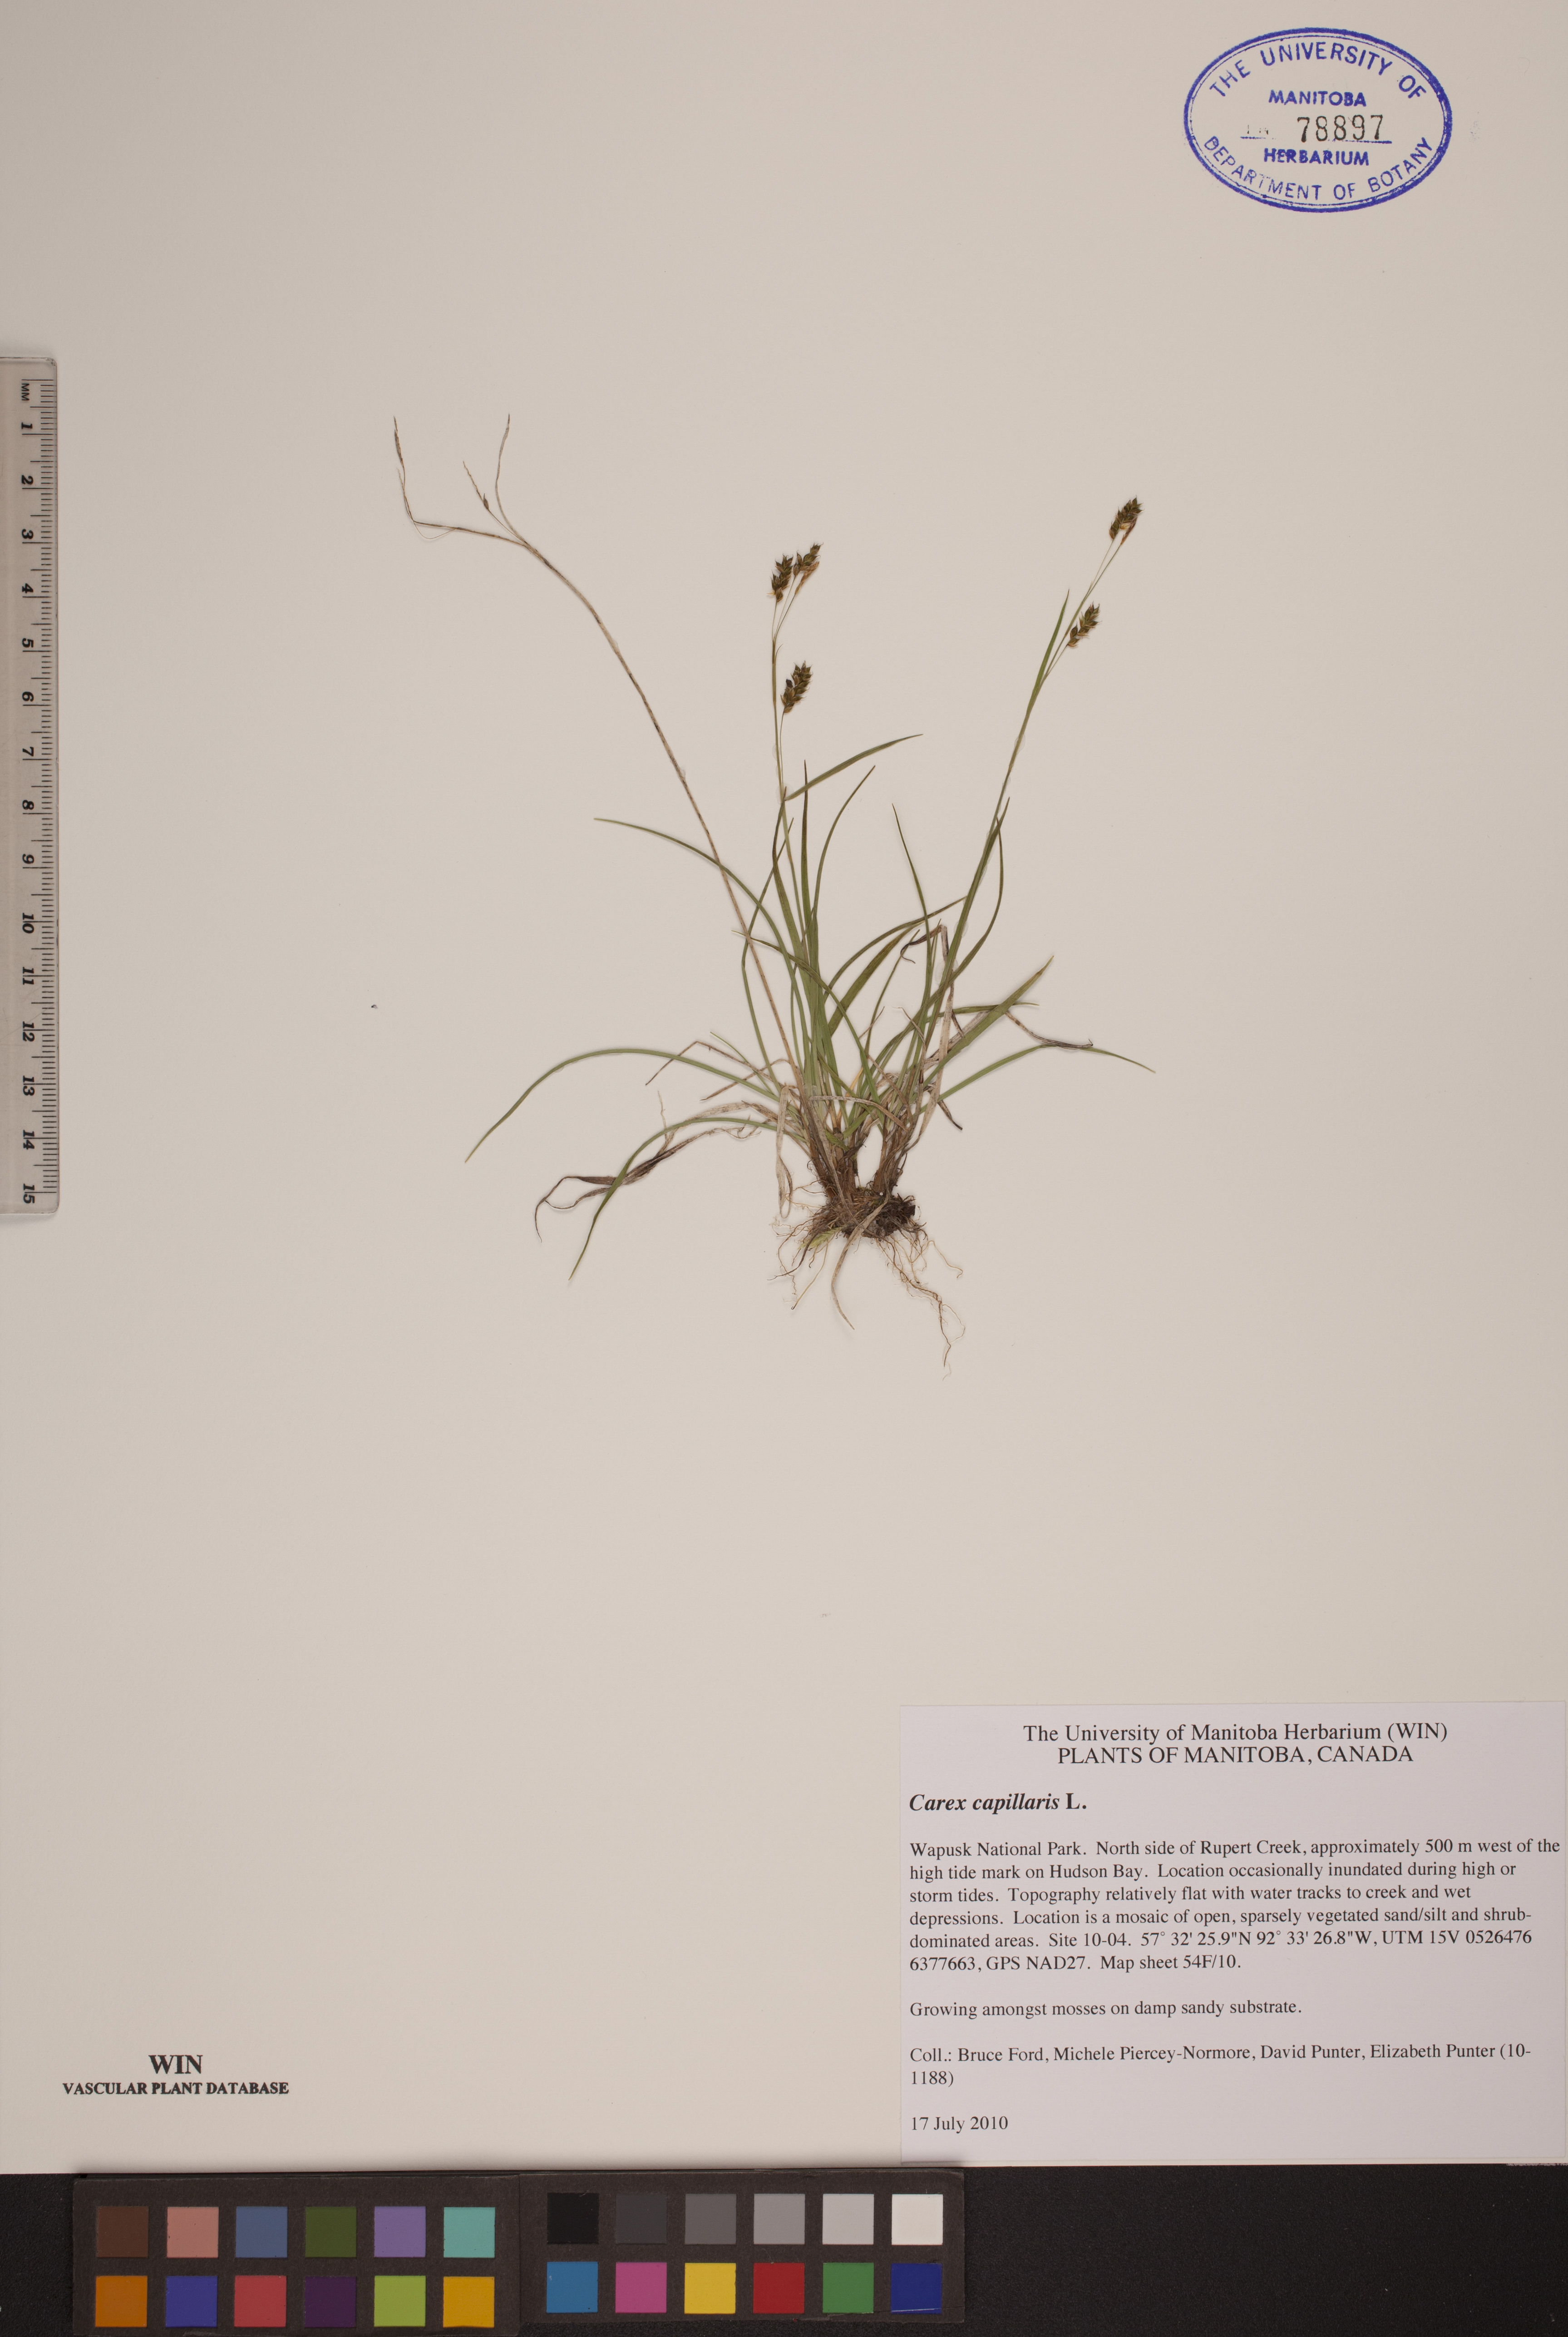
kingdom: Plantae
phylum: Tracheophyta
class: Liliopsida
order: Poales
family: Cyperaceae
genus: Carex
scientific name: Carex capillaris
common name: Hair sedge
